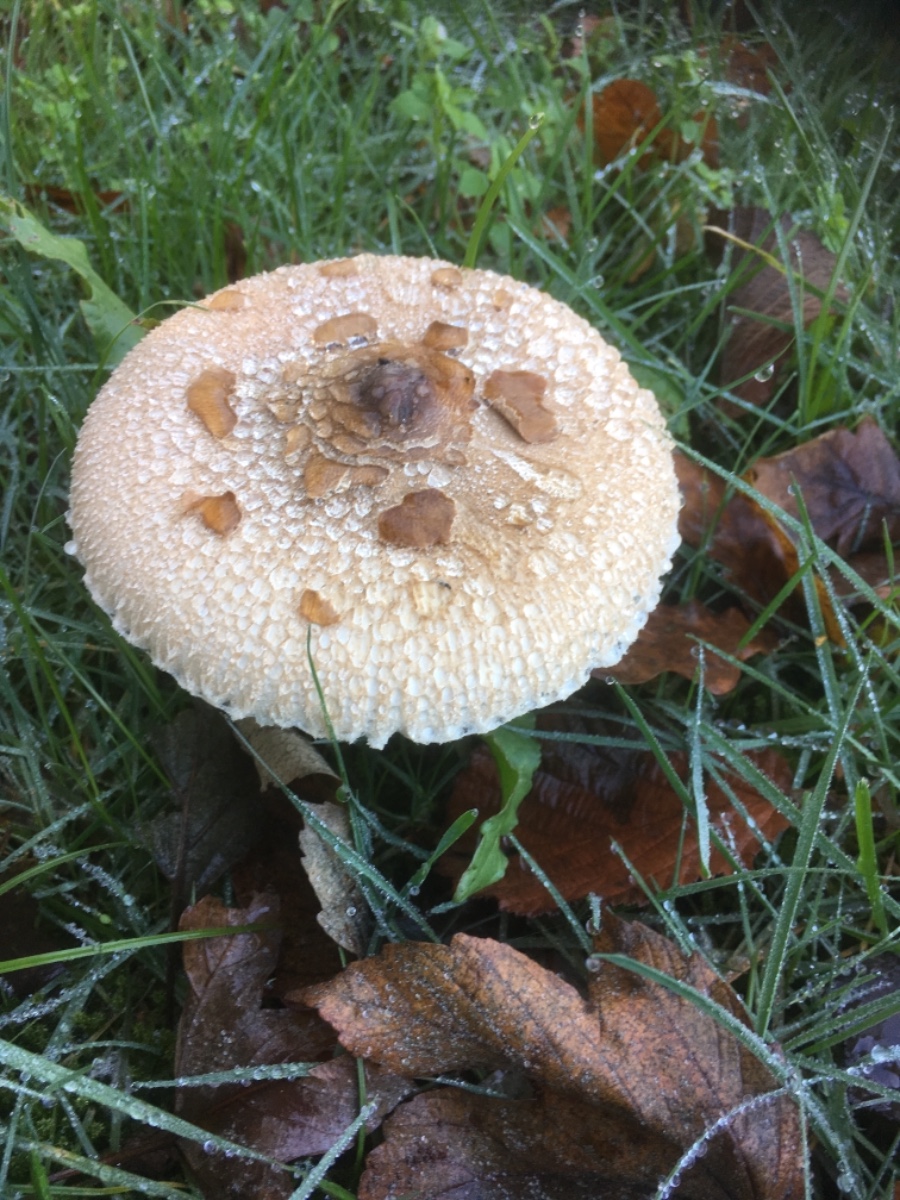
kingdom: Fungi
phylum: Basidiomycota
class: Agaricomycetes
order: Agaricales
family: Agaricaceae
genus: Macrolepiota
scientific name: Macrolepiota mastoidea
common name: puklet kæmpeparasolhat
